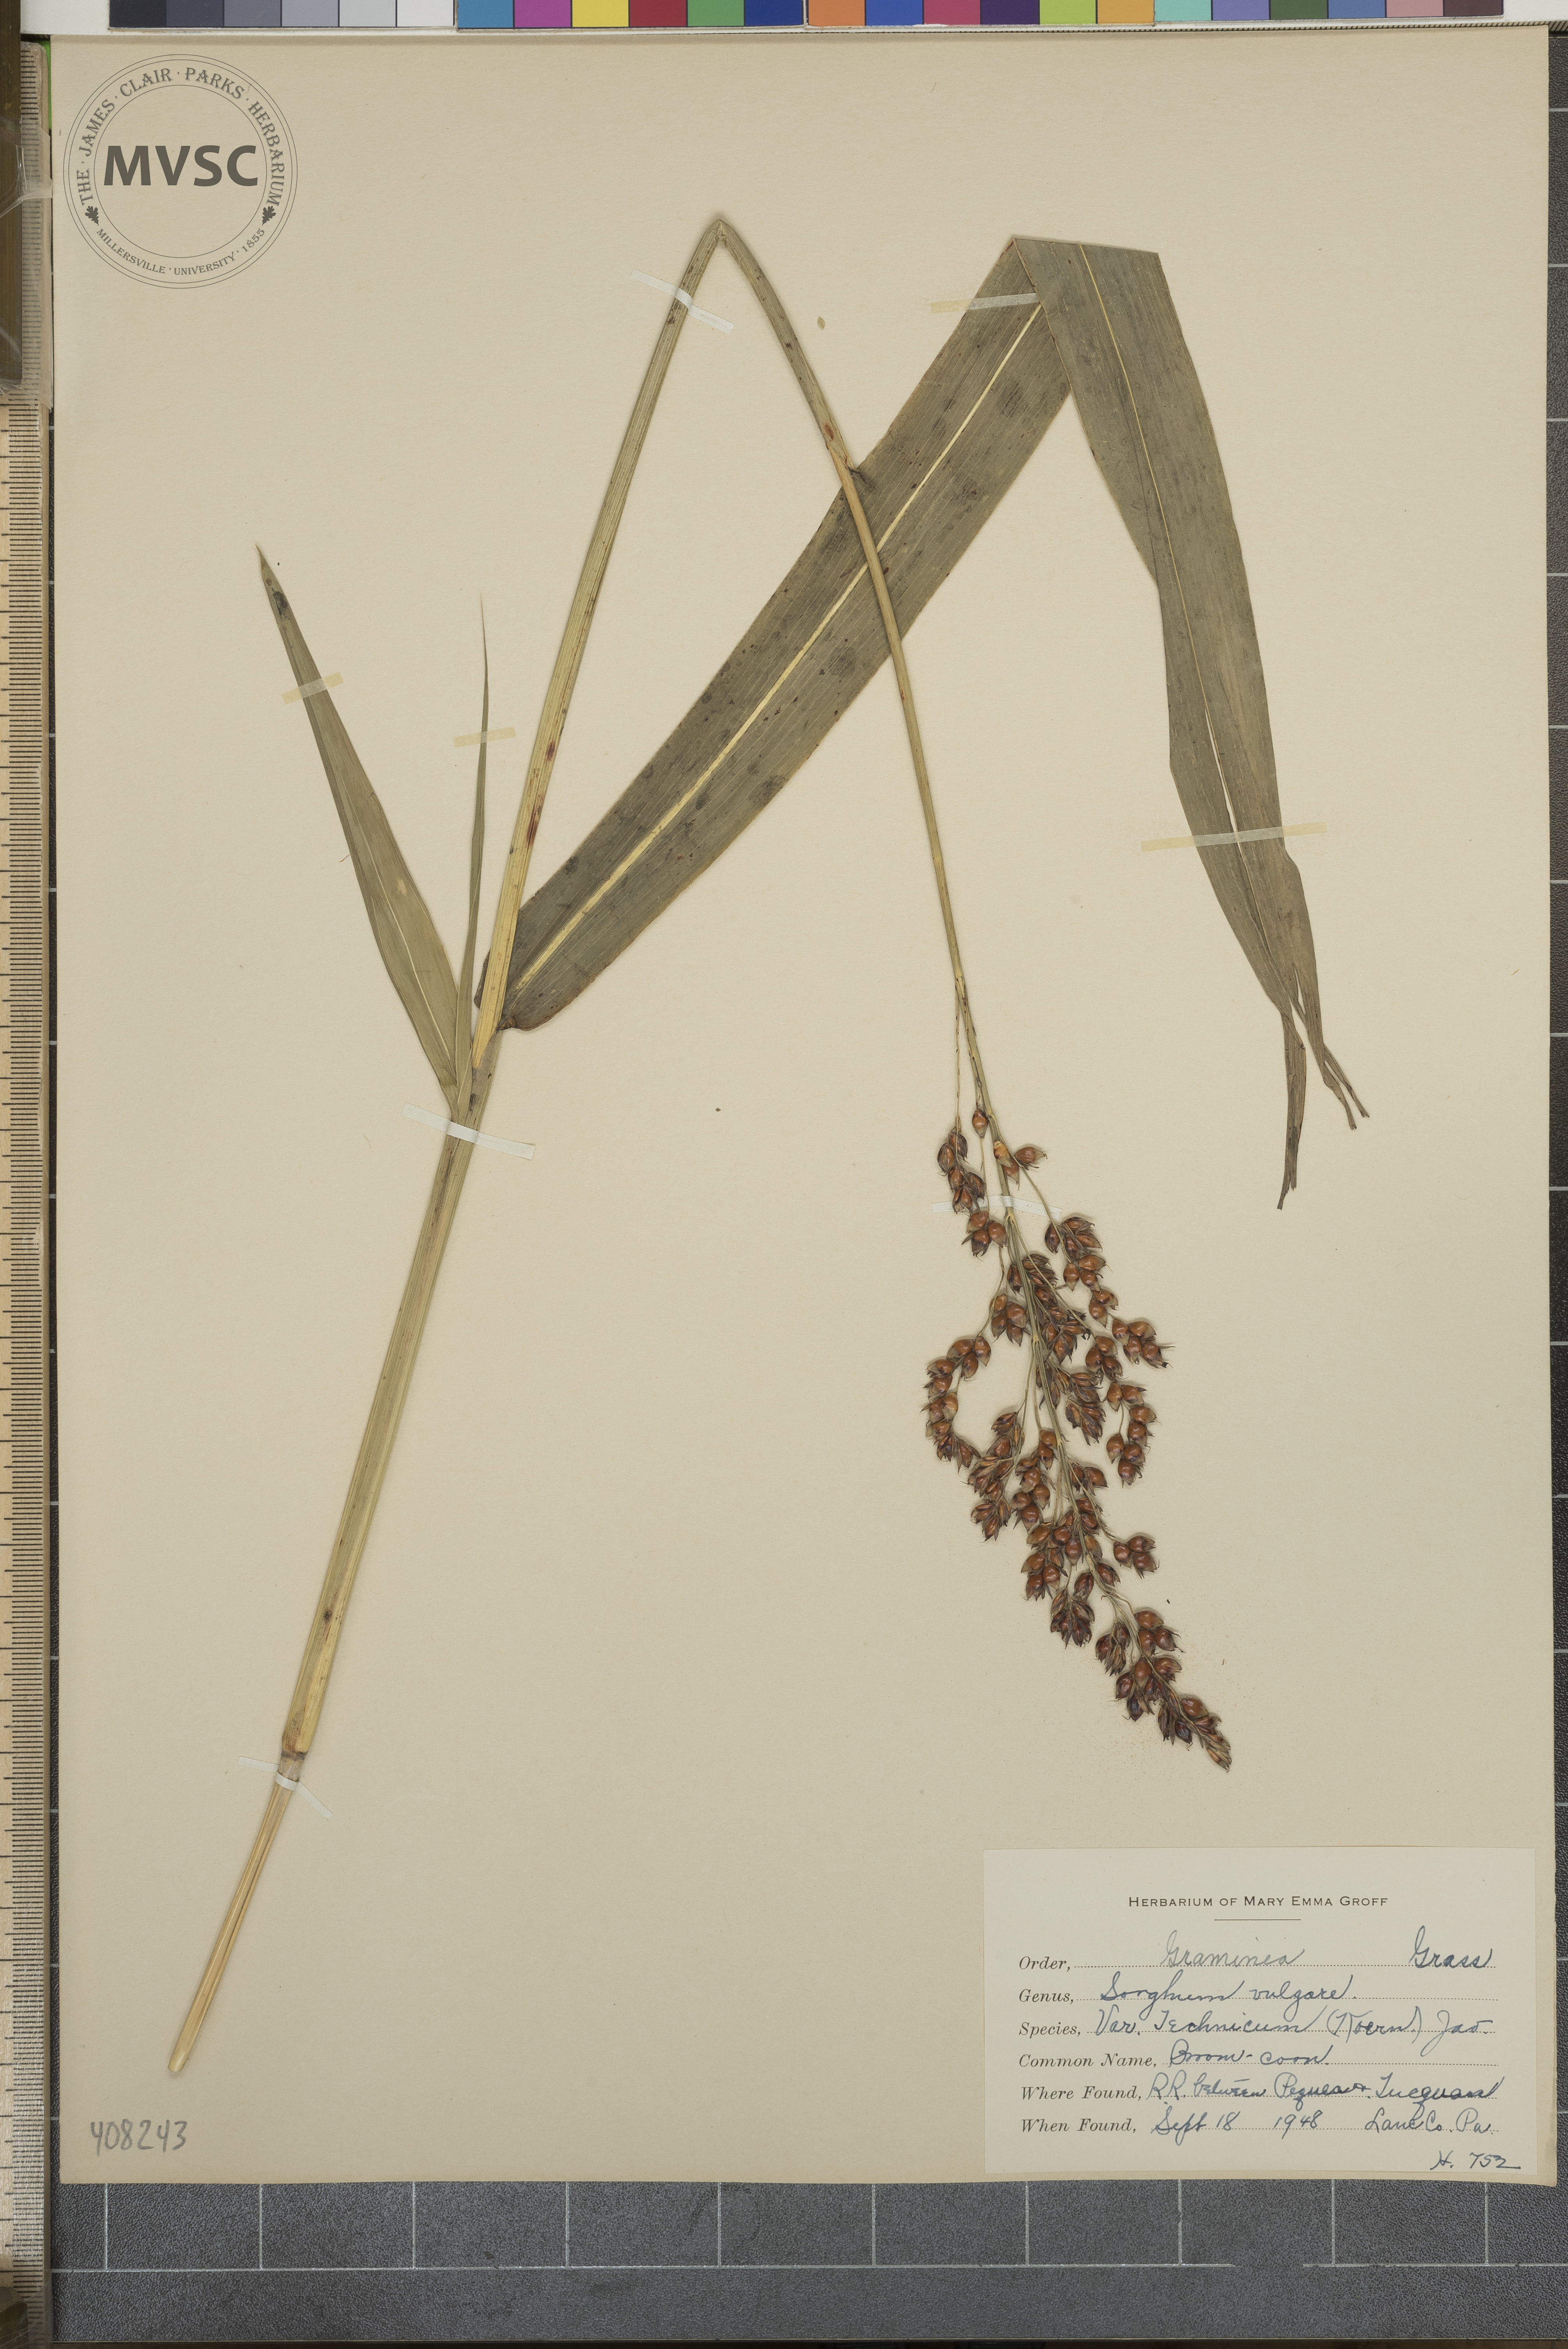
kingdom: Plantae
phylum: Tracheophyta
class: Liliopsida
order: Poales
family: Poaceae
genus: Sorghum
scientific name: Sorghum bicolor
